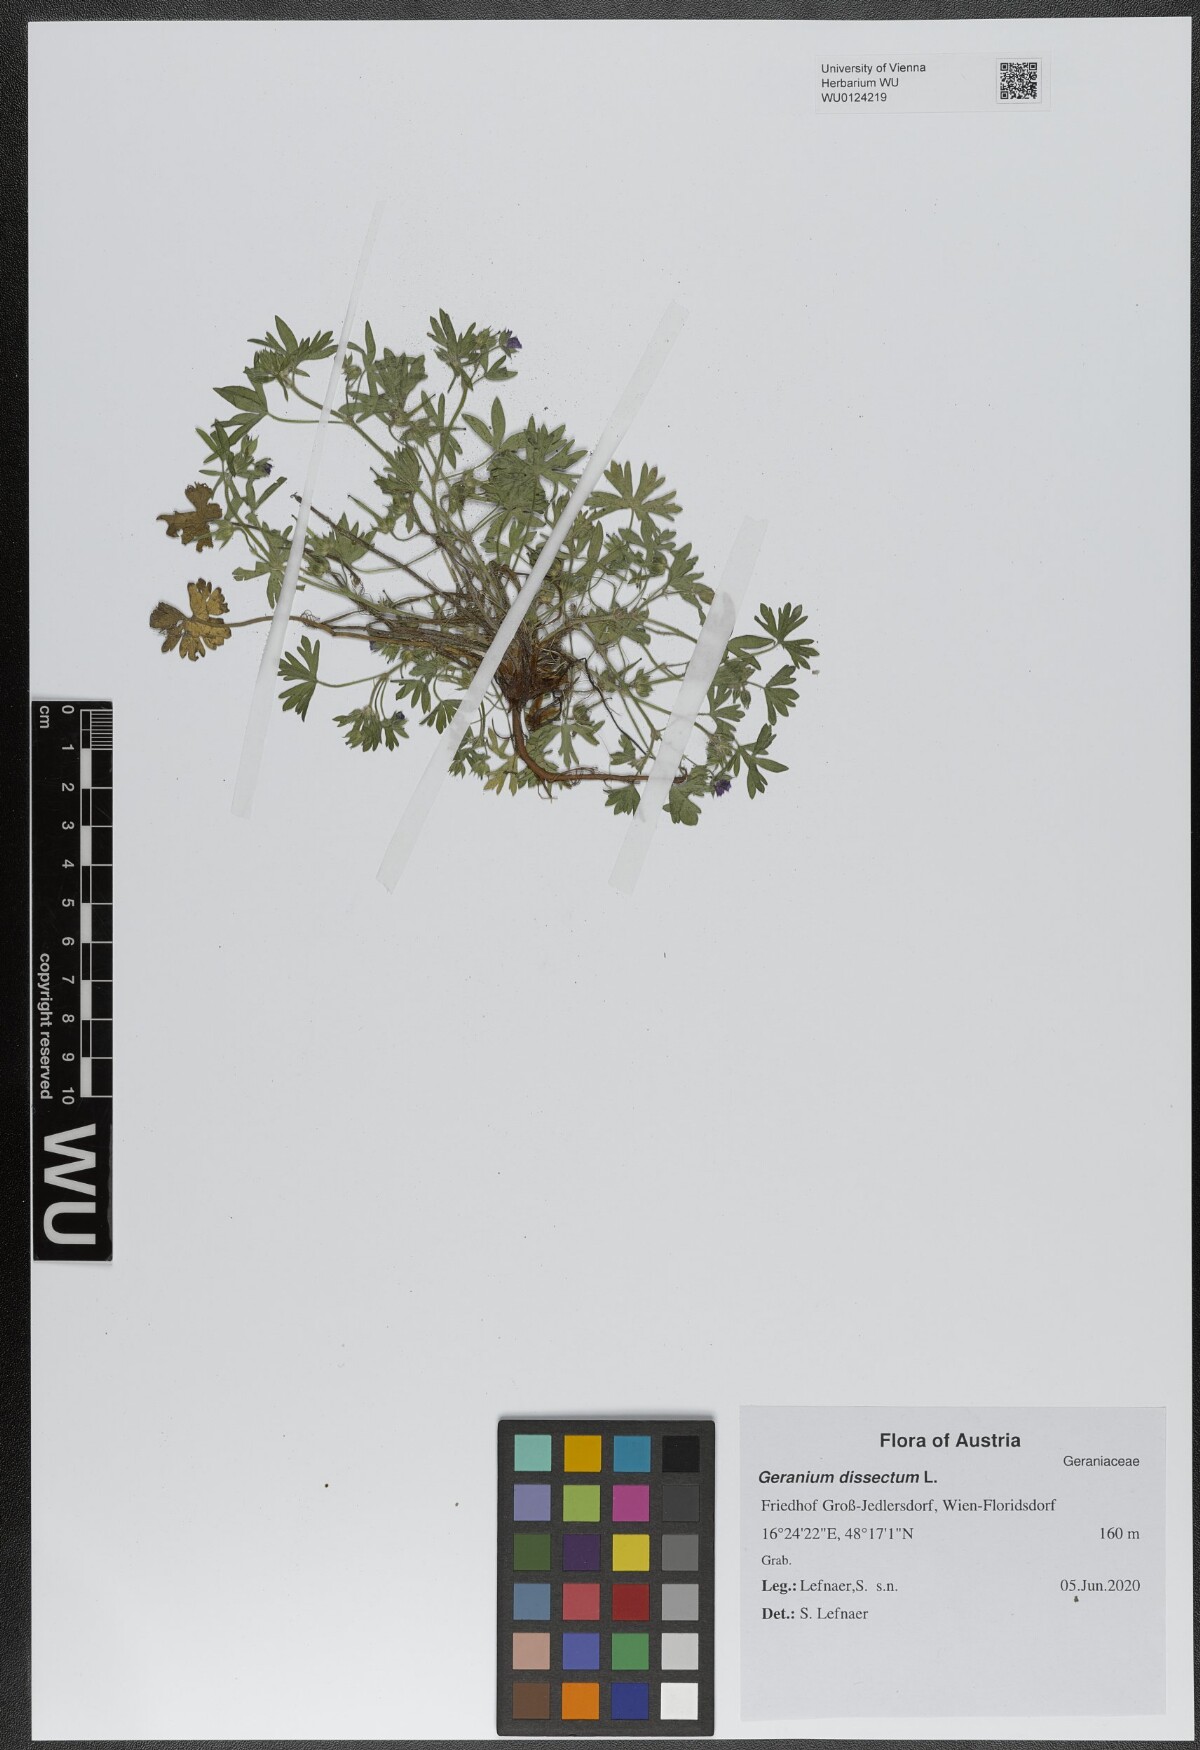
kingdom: Plantae
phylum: Tracheophyta
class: Magnoliopsida
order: Geraniales
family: Geraniaceae
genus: Geranium
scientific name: Geranium dissectum
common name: Cut-leaved crane's-bill
